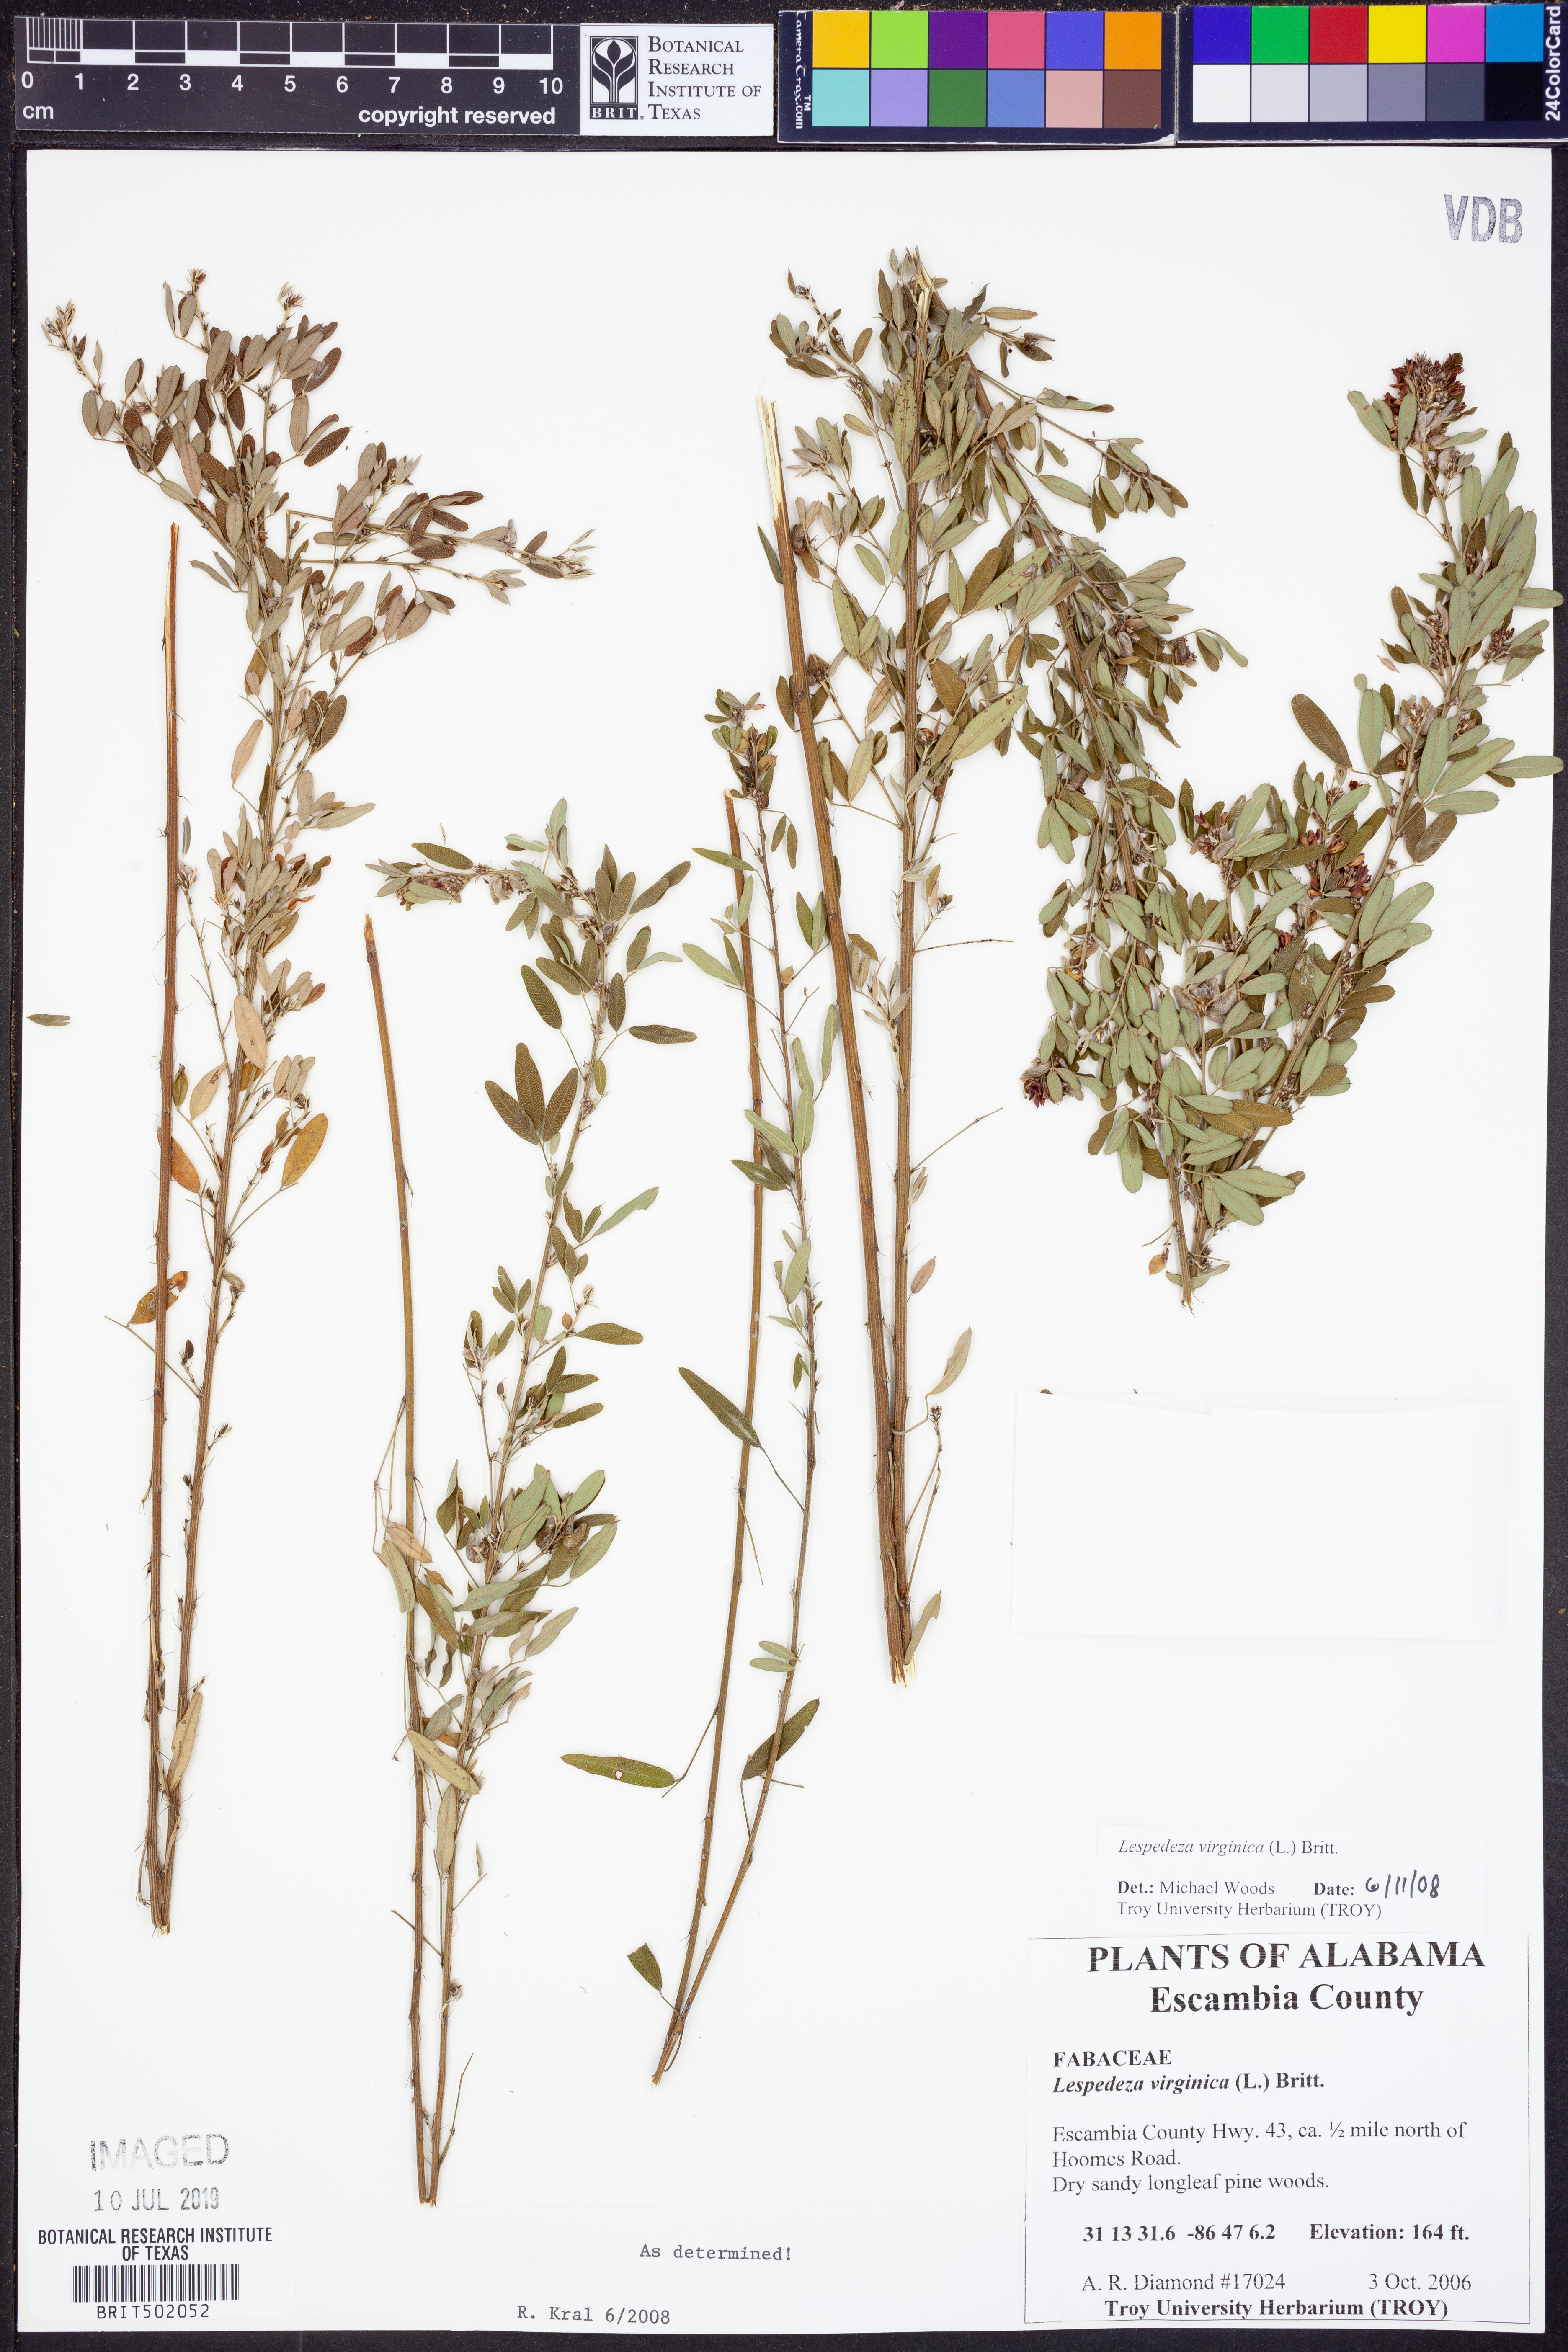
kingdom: Plantae
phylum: Tracheophyta
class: Magnoliopsida
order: Fabales
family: Fabaceae
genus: Lespedeza
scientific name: Lespedeza virginica
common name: Slender bush-clover
